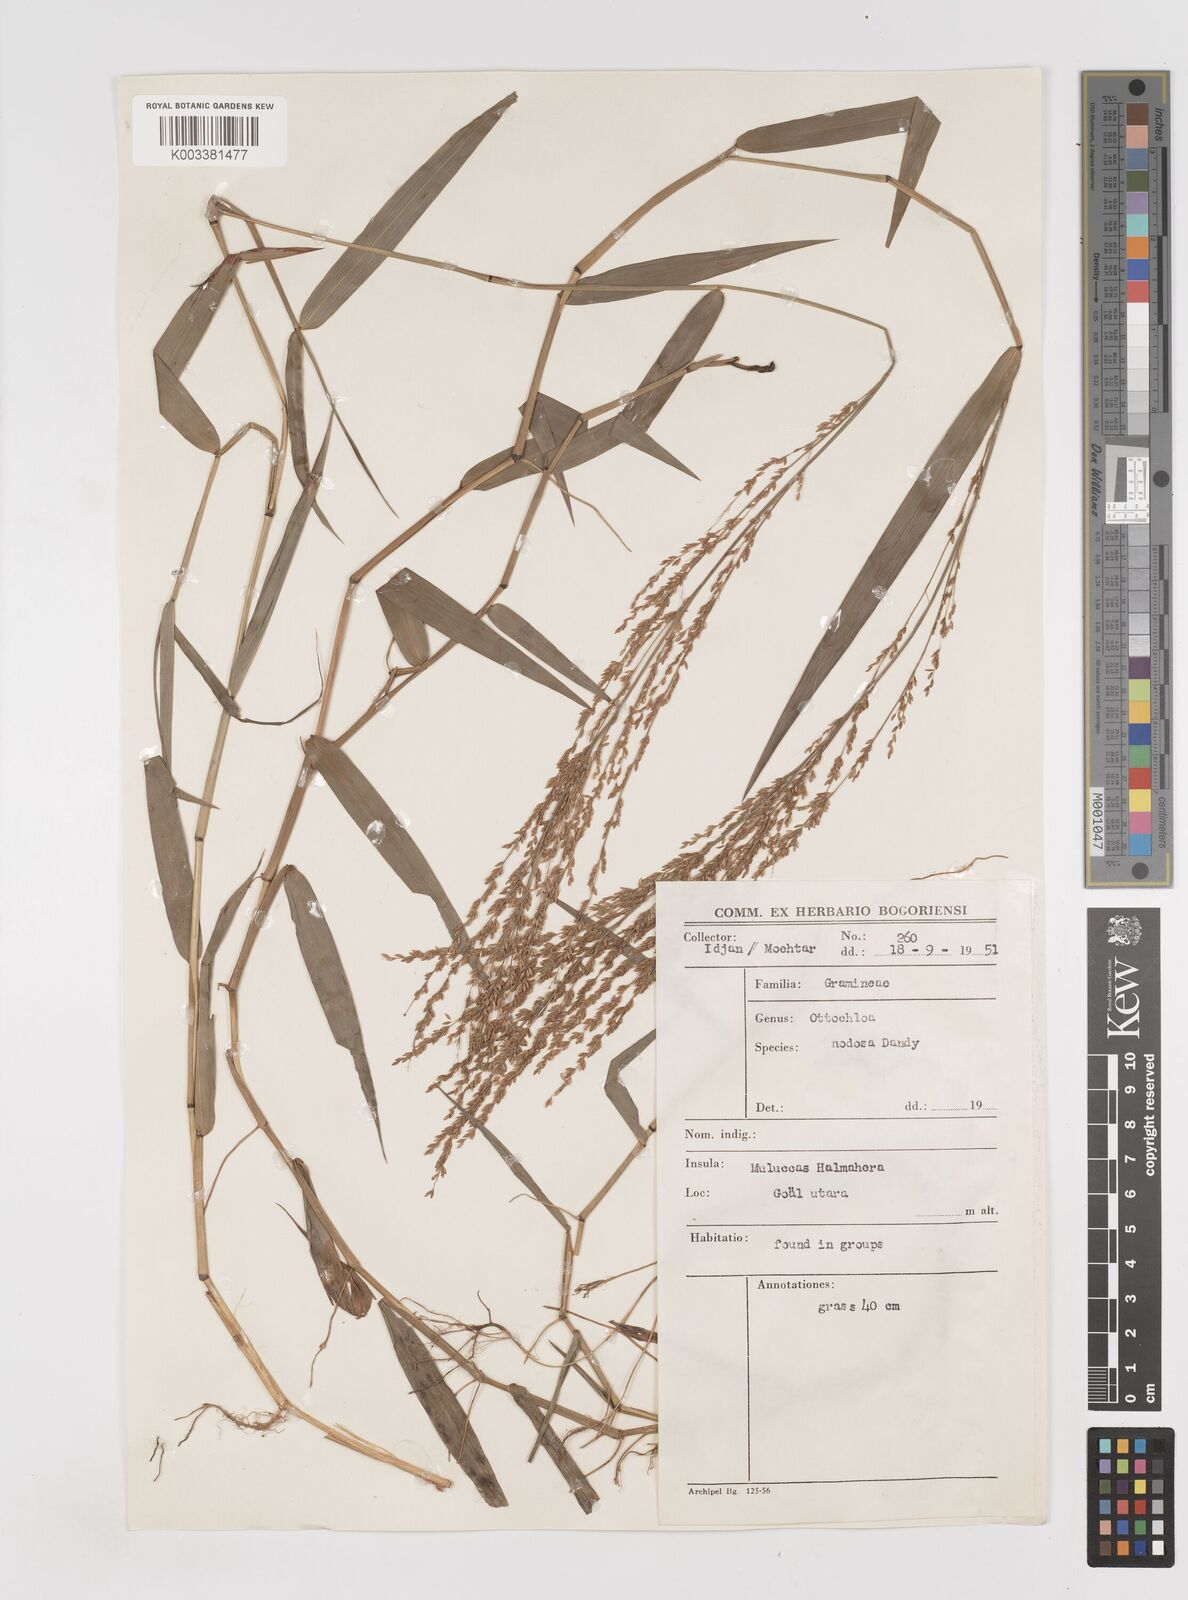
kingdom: Plantae
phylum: Tracheophyta
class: Liliopsida
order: Poales
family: Poaceae
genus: Ottochloa
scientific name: Ottochloa nodosa
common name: Slender-panic grass
